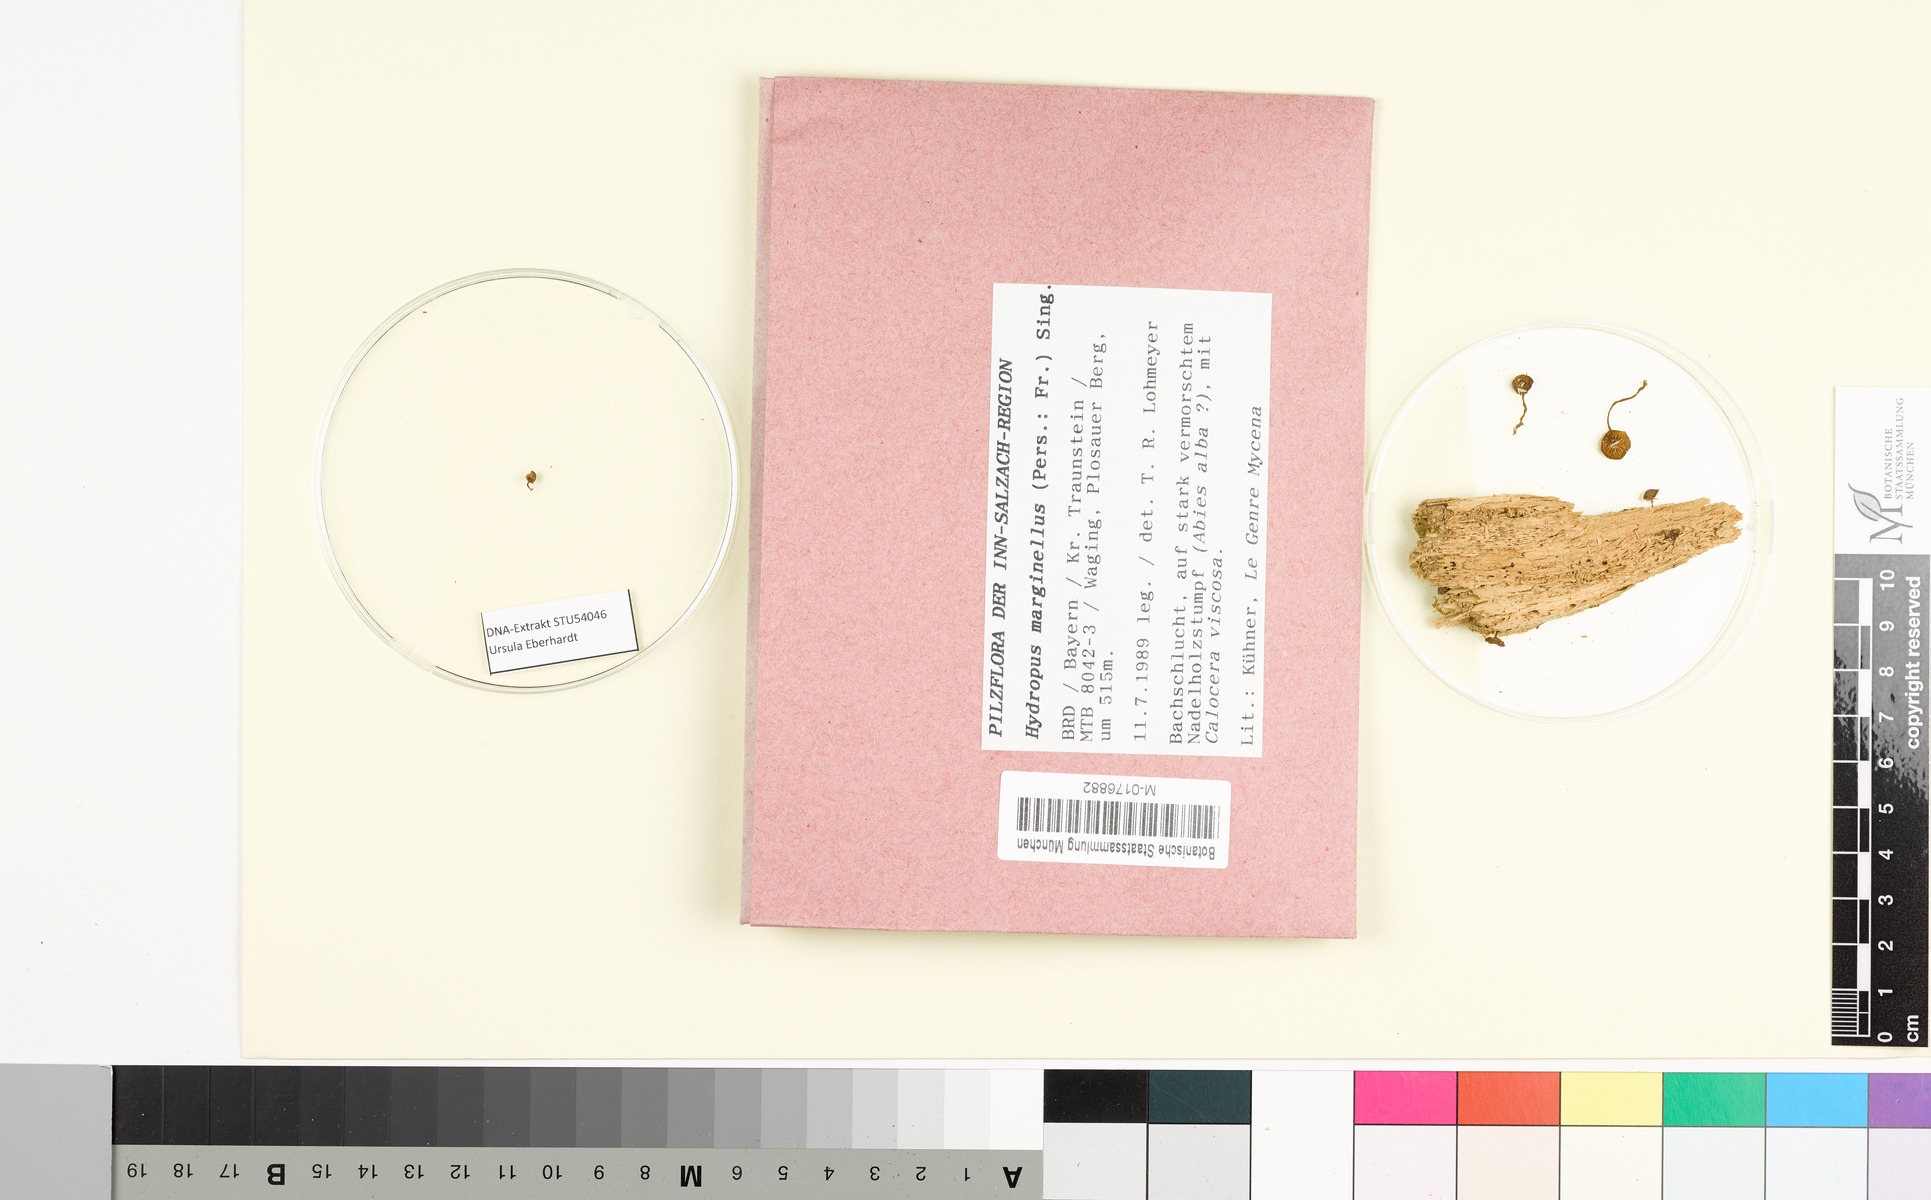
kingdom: Fungi
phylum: Basidiomycota
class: Agaricomycetes
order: Agaricales
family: Mycenaceae
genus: Hydropus
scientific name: Hydropus marginellus
